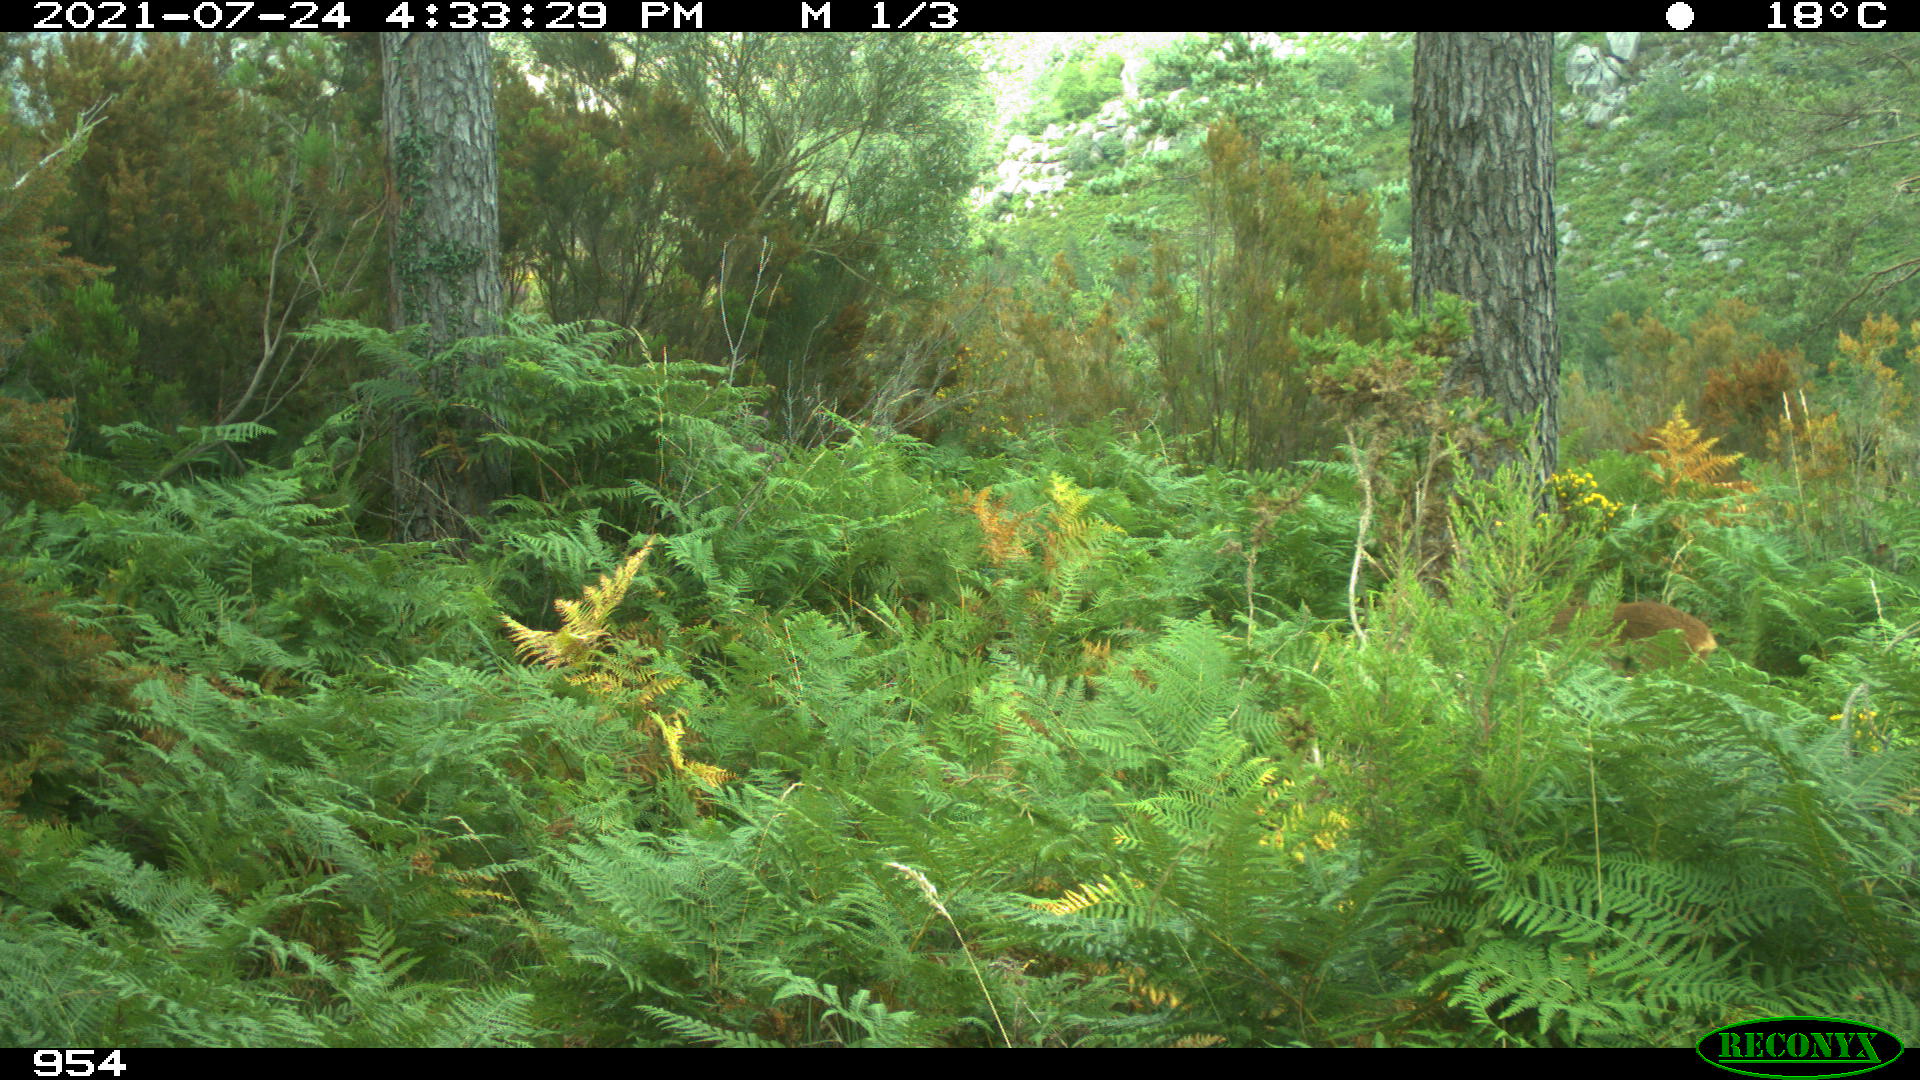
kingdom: Animalia
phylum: Chordata
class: Mammalia
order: Artiodactyla
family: Cervidae
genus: Capreolus
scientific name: Capreolus capreolus
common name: Western roe deer
